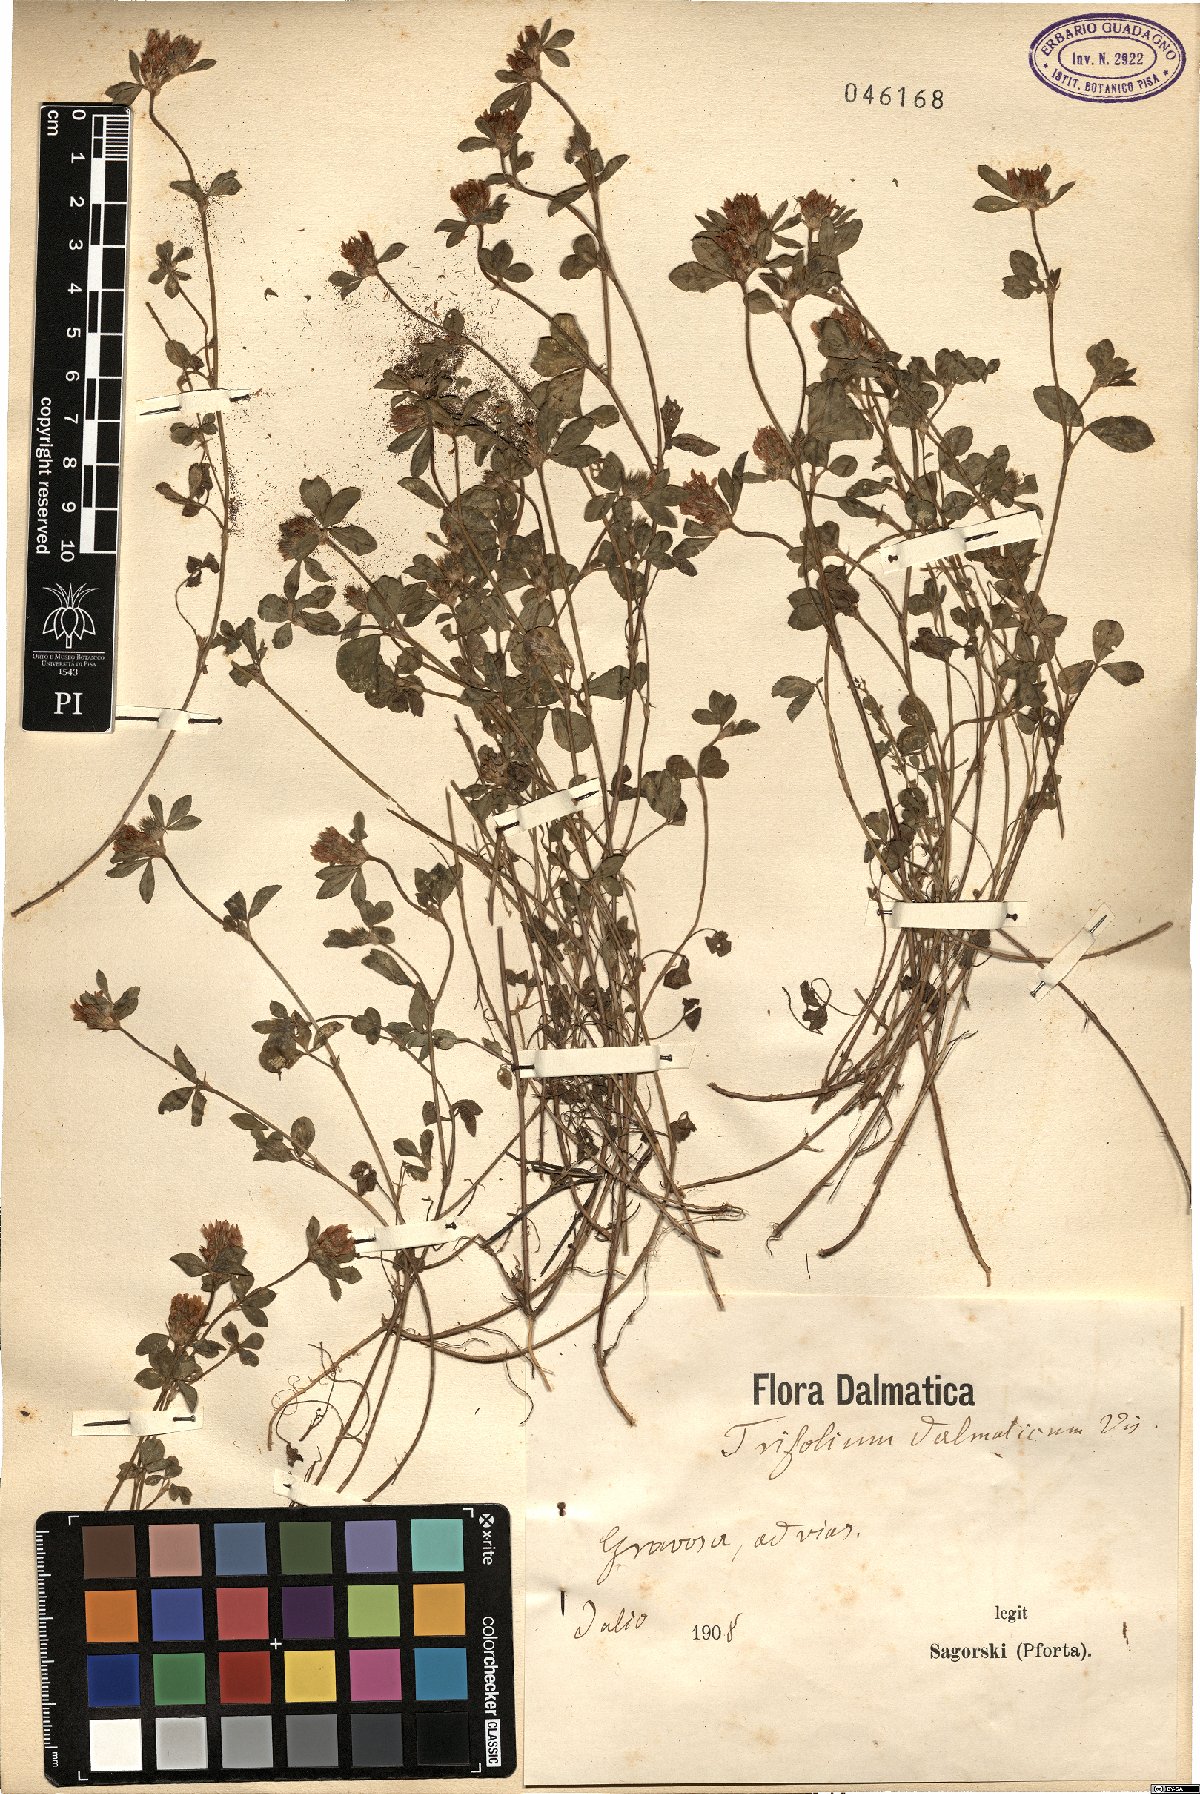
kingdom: Plantae
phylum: Tracheophyta
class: Magnoliopsida
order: Fabales
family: Fabaceae
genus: Trifolium
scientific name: Trifolium dalmaticum
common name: Dalmatian clover
